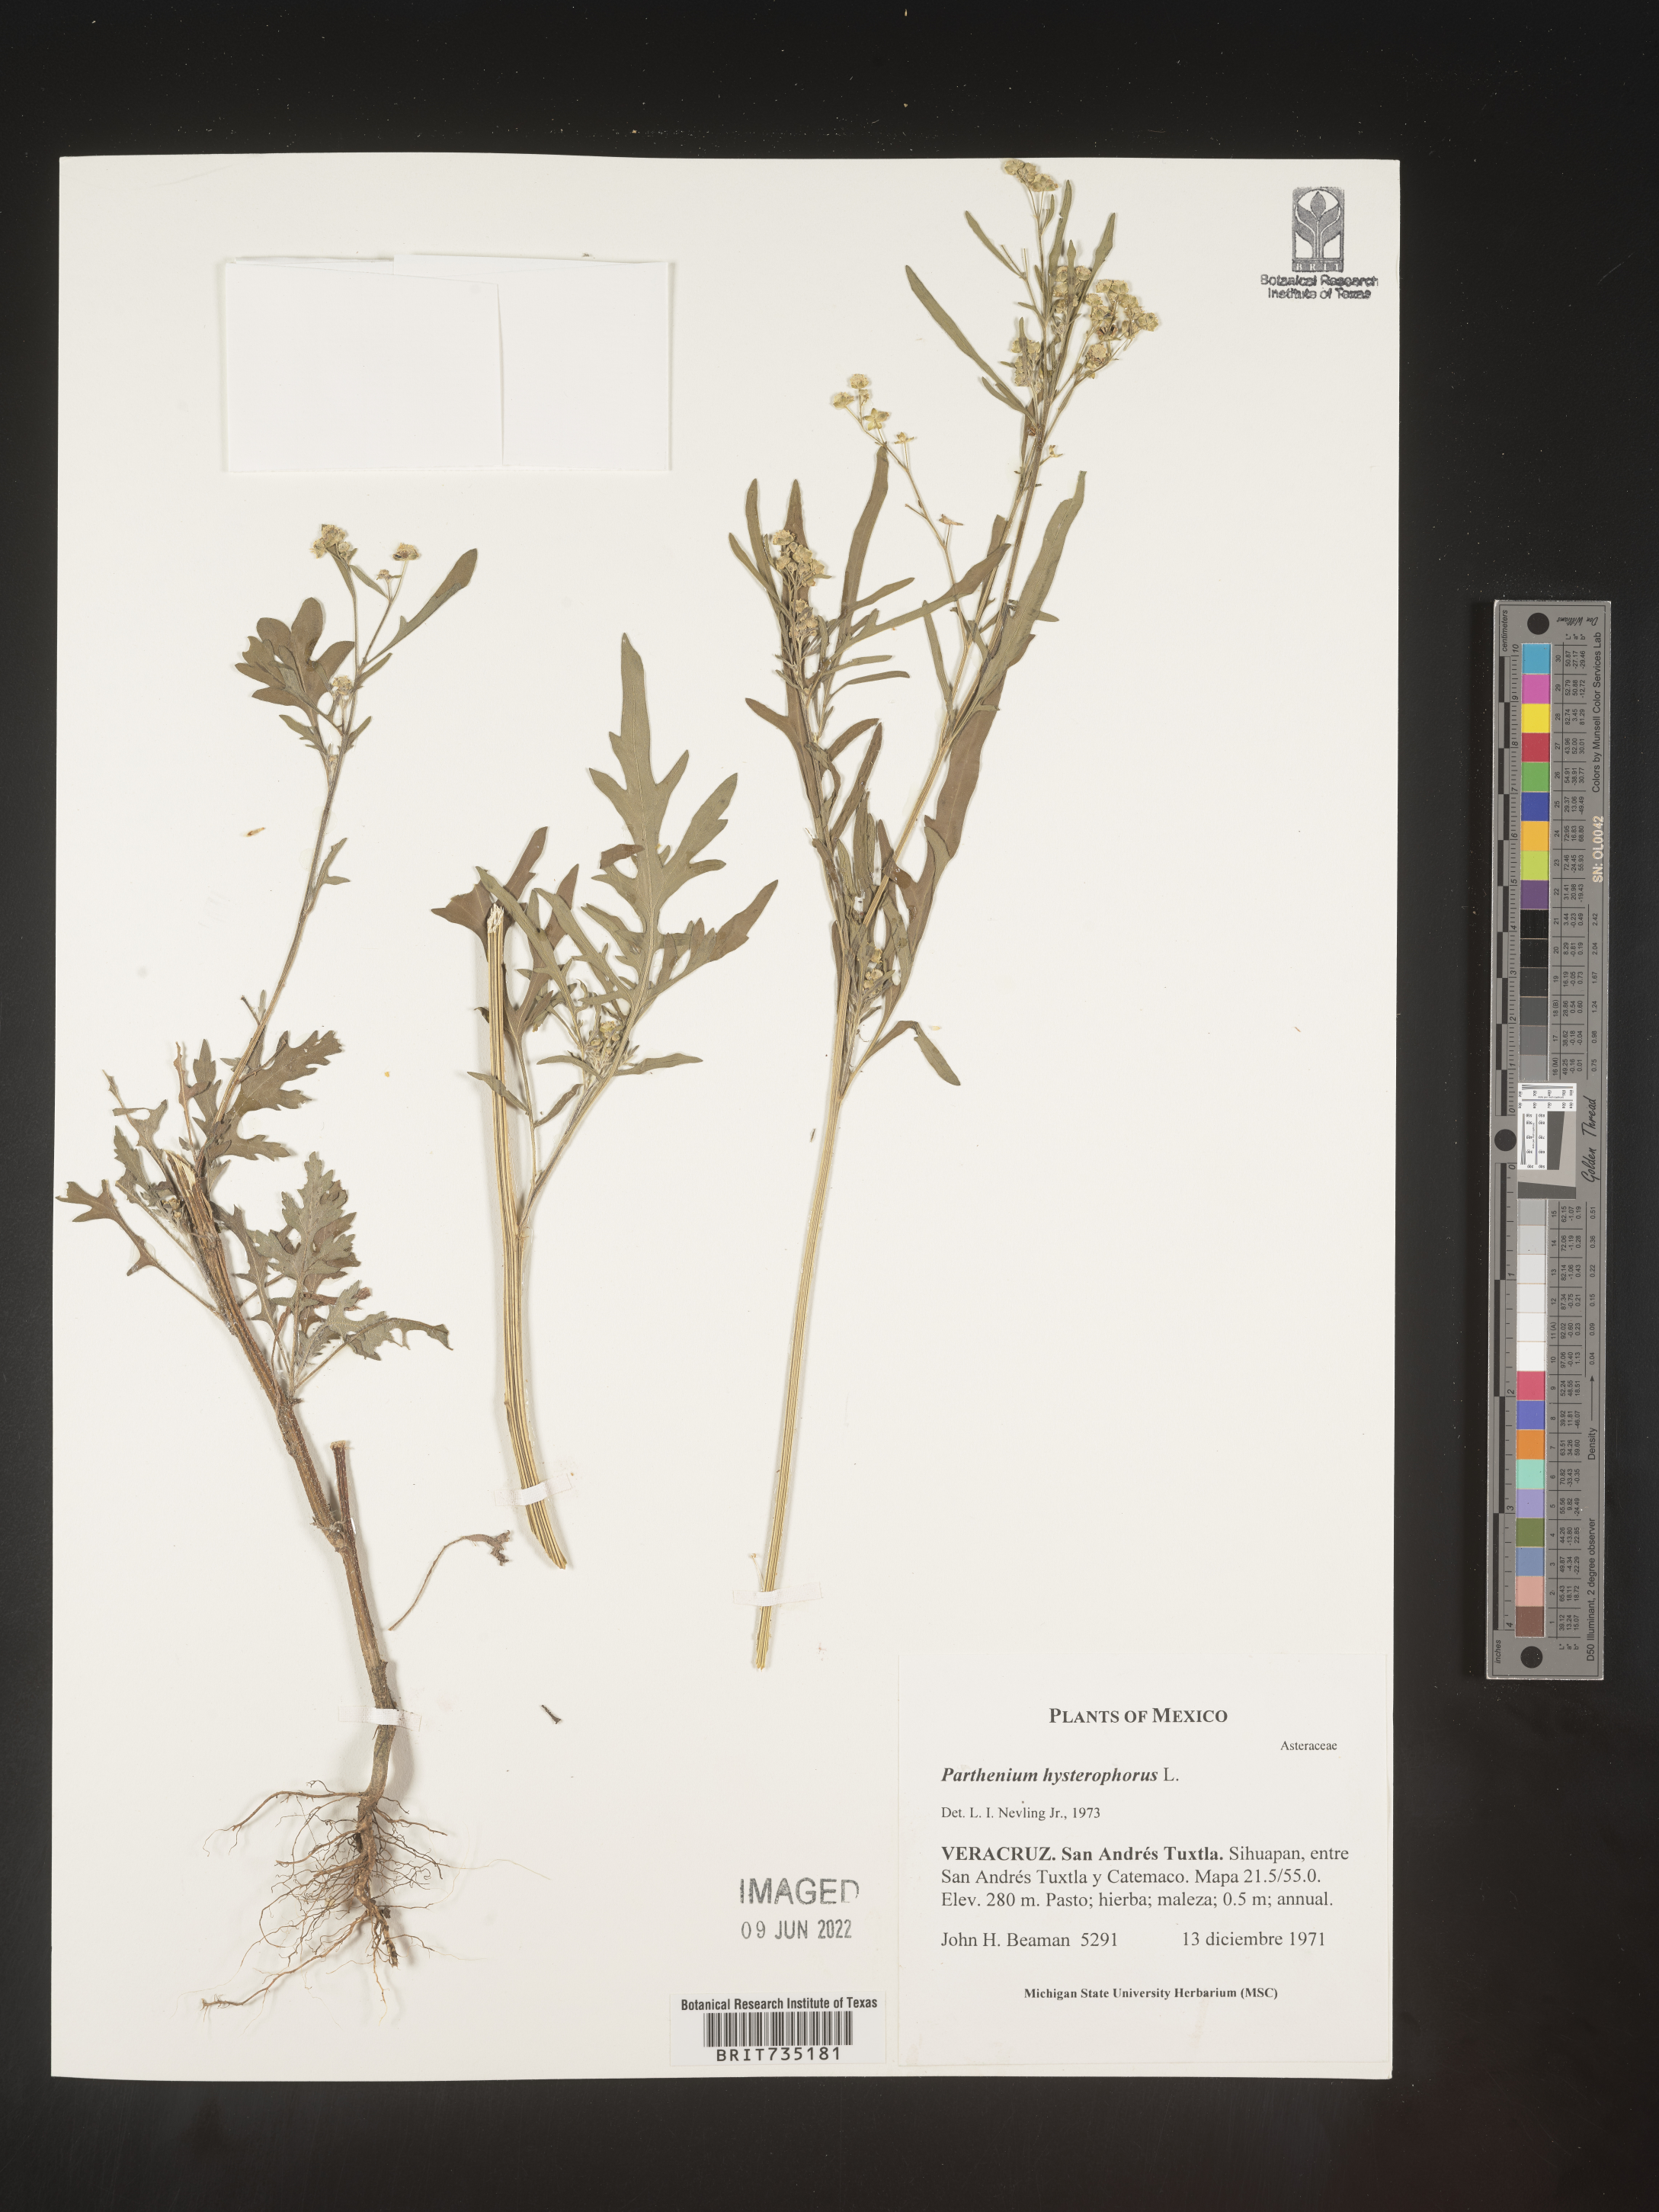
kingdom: Plantae
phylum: Tracheophyta
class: Magnoliopsida
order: Asterales
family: Asteraceae
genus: Parthenium
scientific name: Parthenium hysterophorus
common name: Santa maria feverfew
